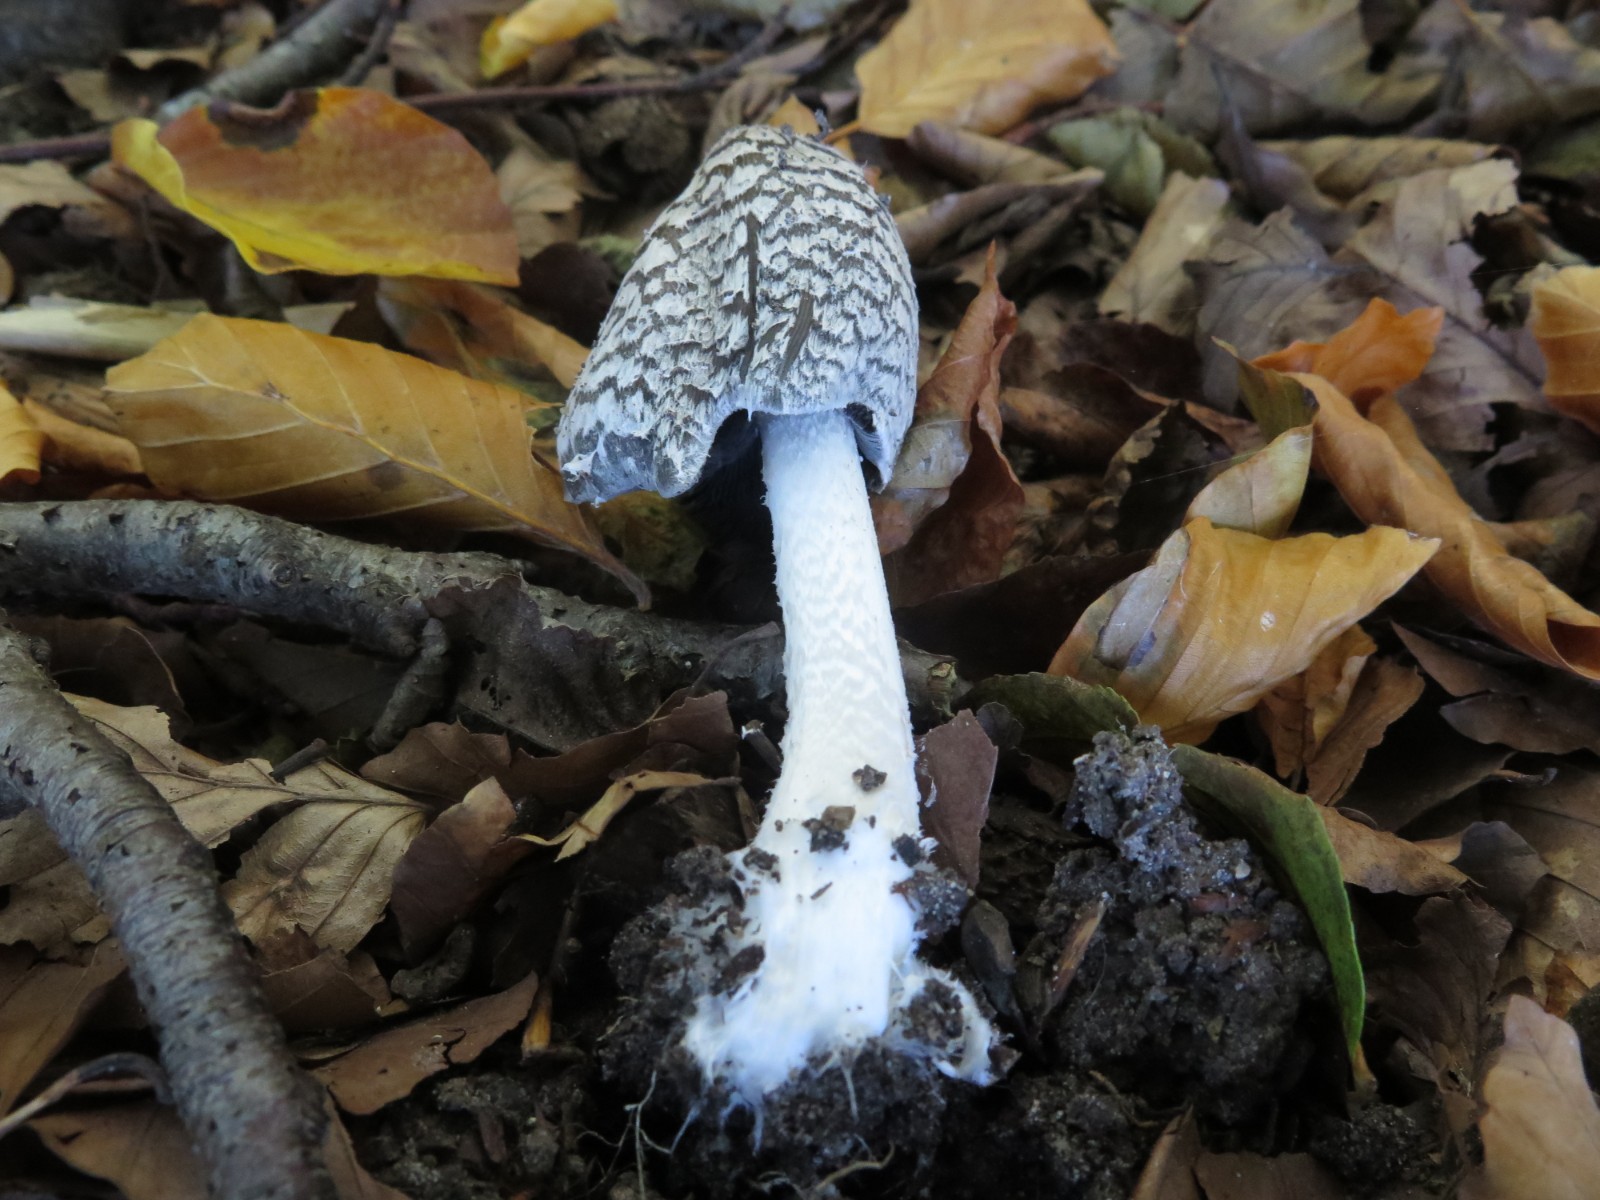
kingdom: Fungi
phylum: Basidiomycota
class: Agaricomycetes
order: Agaricales
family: Psathyrellaceae
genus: Coprinopsis
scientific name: Coprinopsis picacea
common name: skade-blækhat
